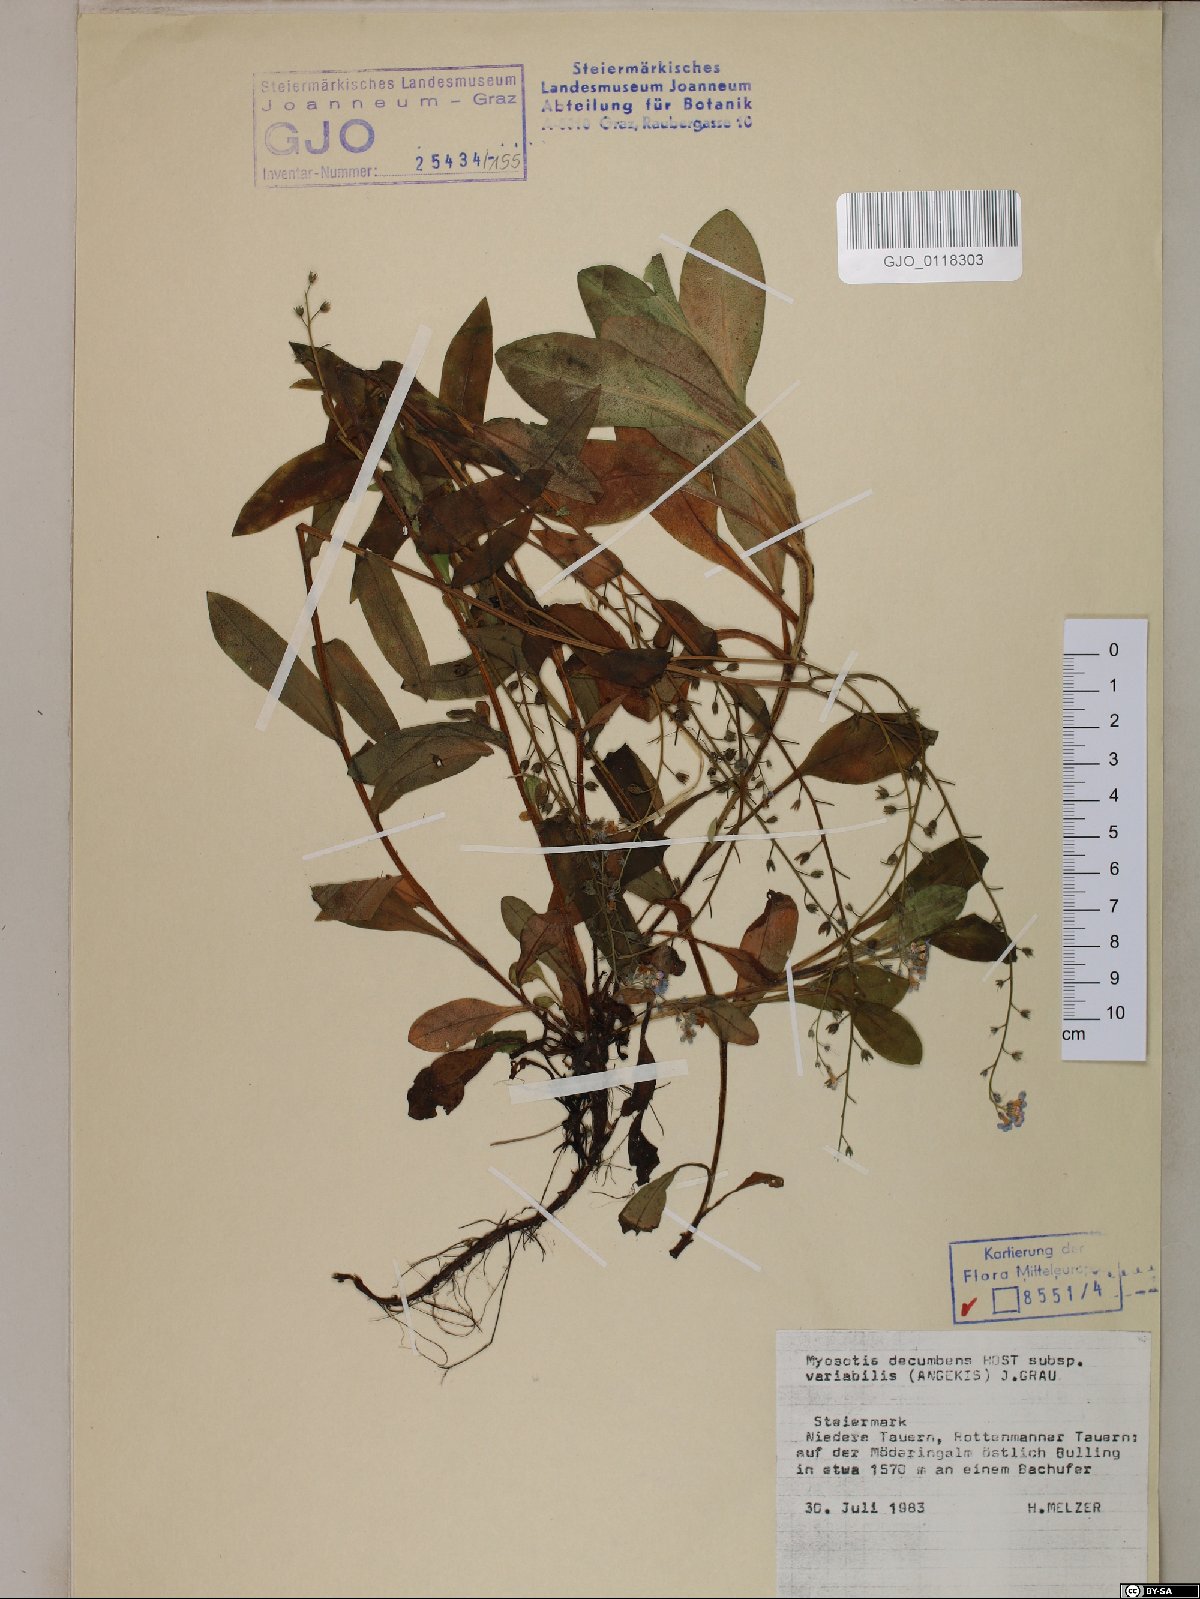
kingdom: Plantae
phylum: Tracheophyta
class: Magnoliopsida
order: Boraginales
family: Boraginaceae
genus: Myosotis
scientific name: Myosotis decumbens
